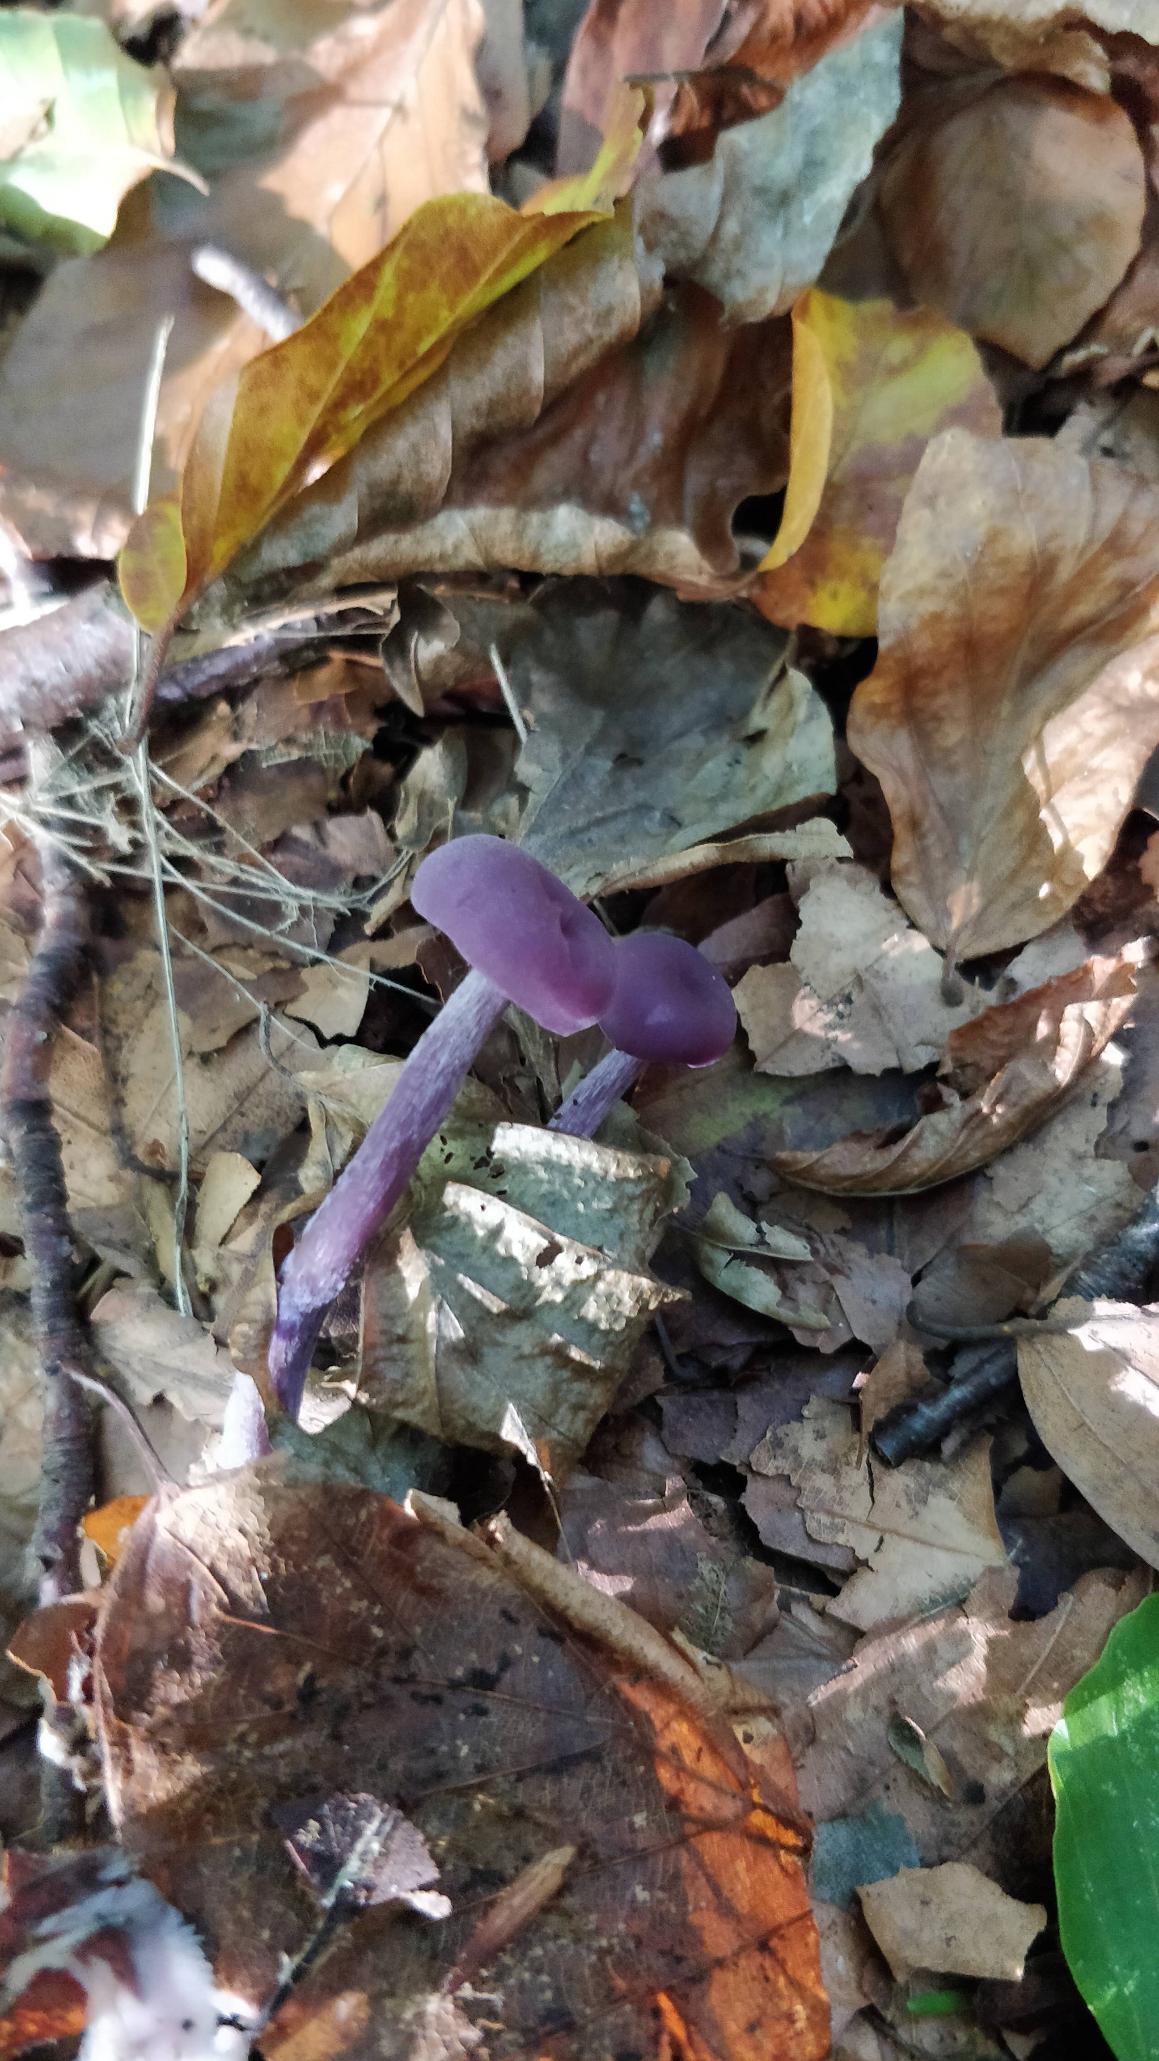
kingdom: Fungi
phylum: Basidiomycota
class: Agaricomycetes
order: Agaricales
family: Hydnangiaceae
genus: Laccaria
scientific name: Laccaria amethystina
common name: Violet ametysthat
